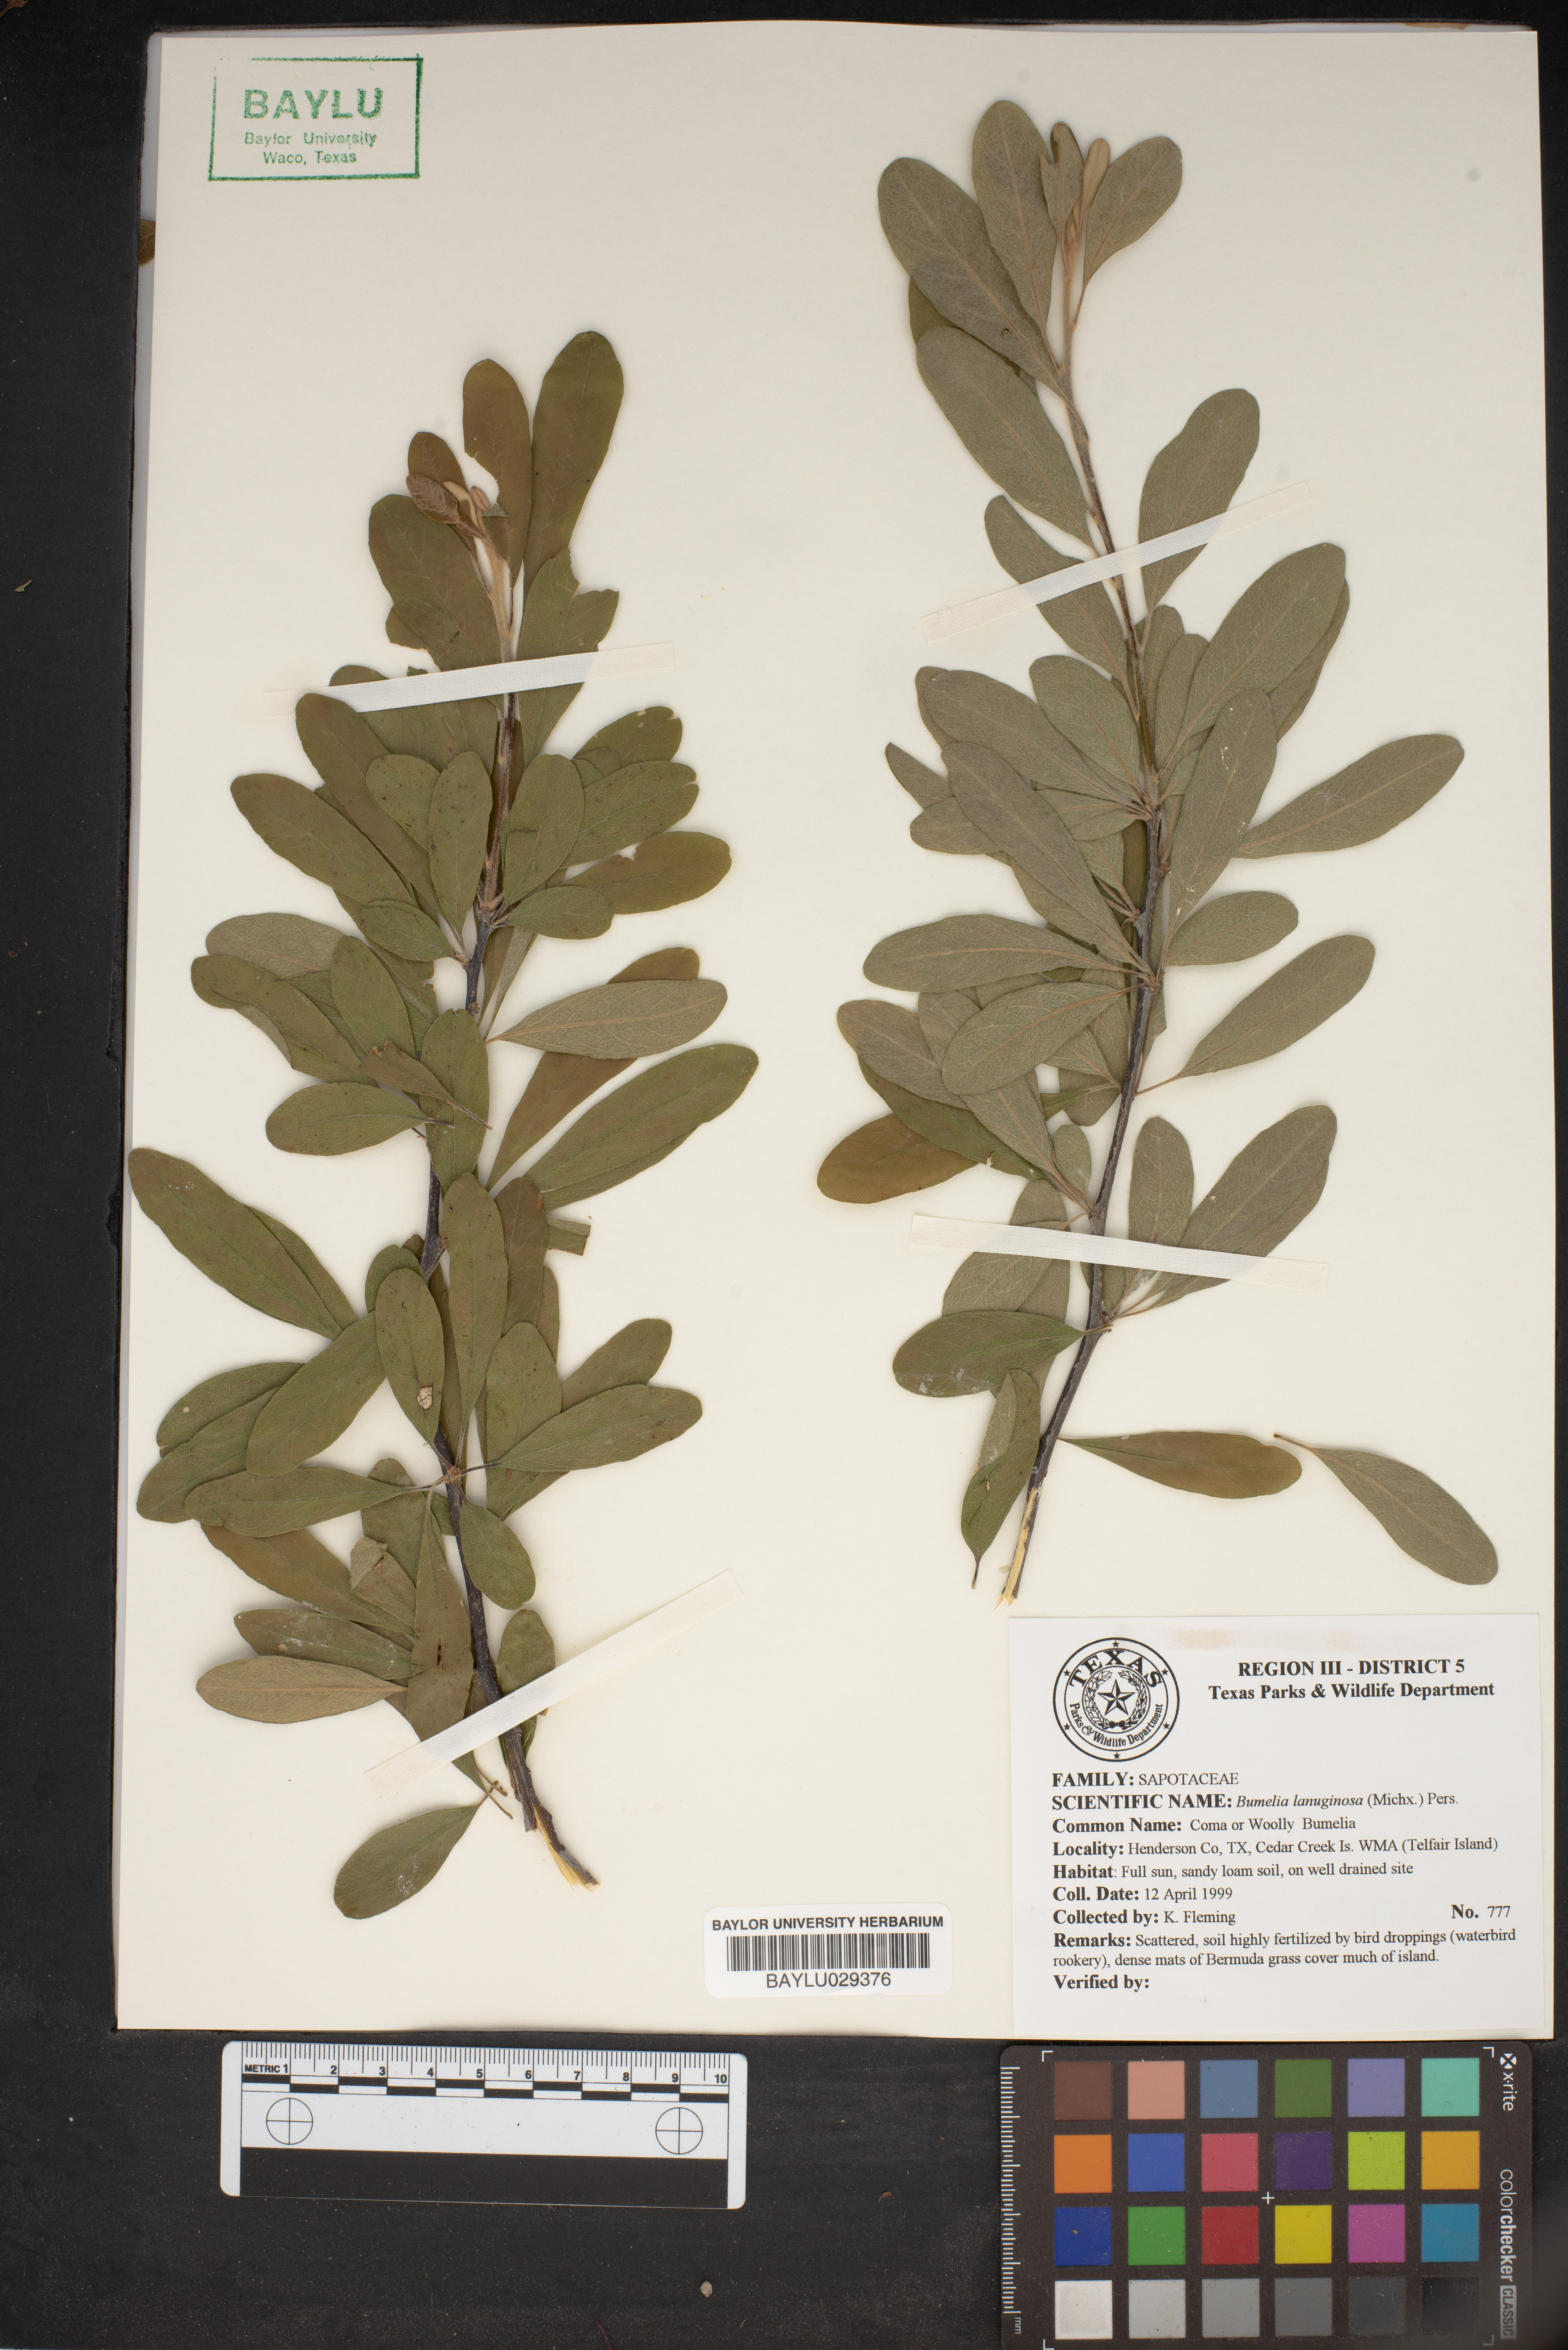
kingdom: Plantae
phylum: Tracheophyta
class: Magnoliopsida
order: Ericales
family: Sapotaceae
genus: Sideroxylon
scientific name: Sideroxylon lanuginosum
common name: Chittamwood
